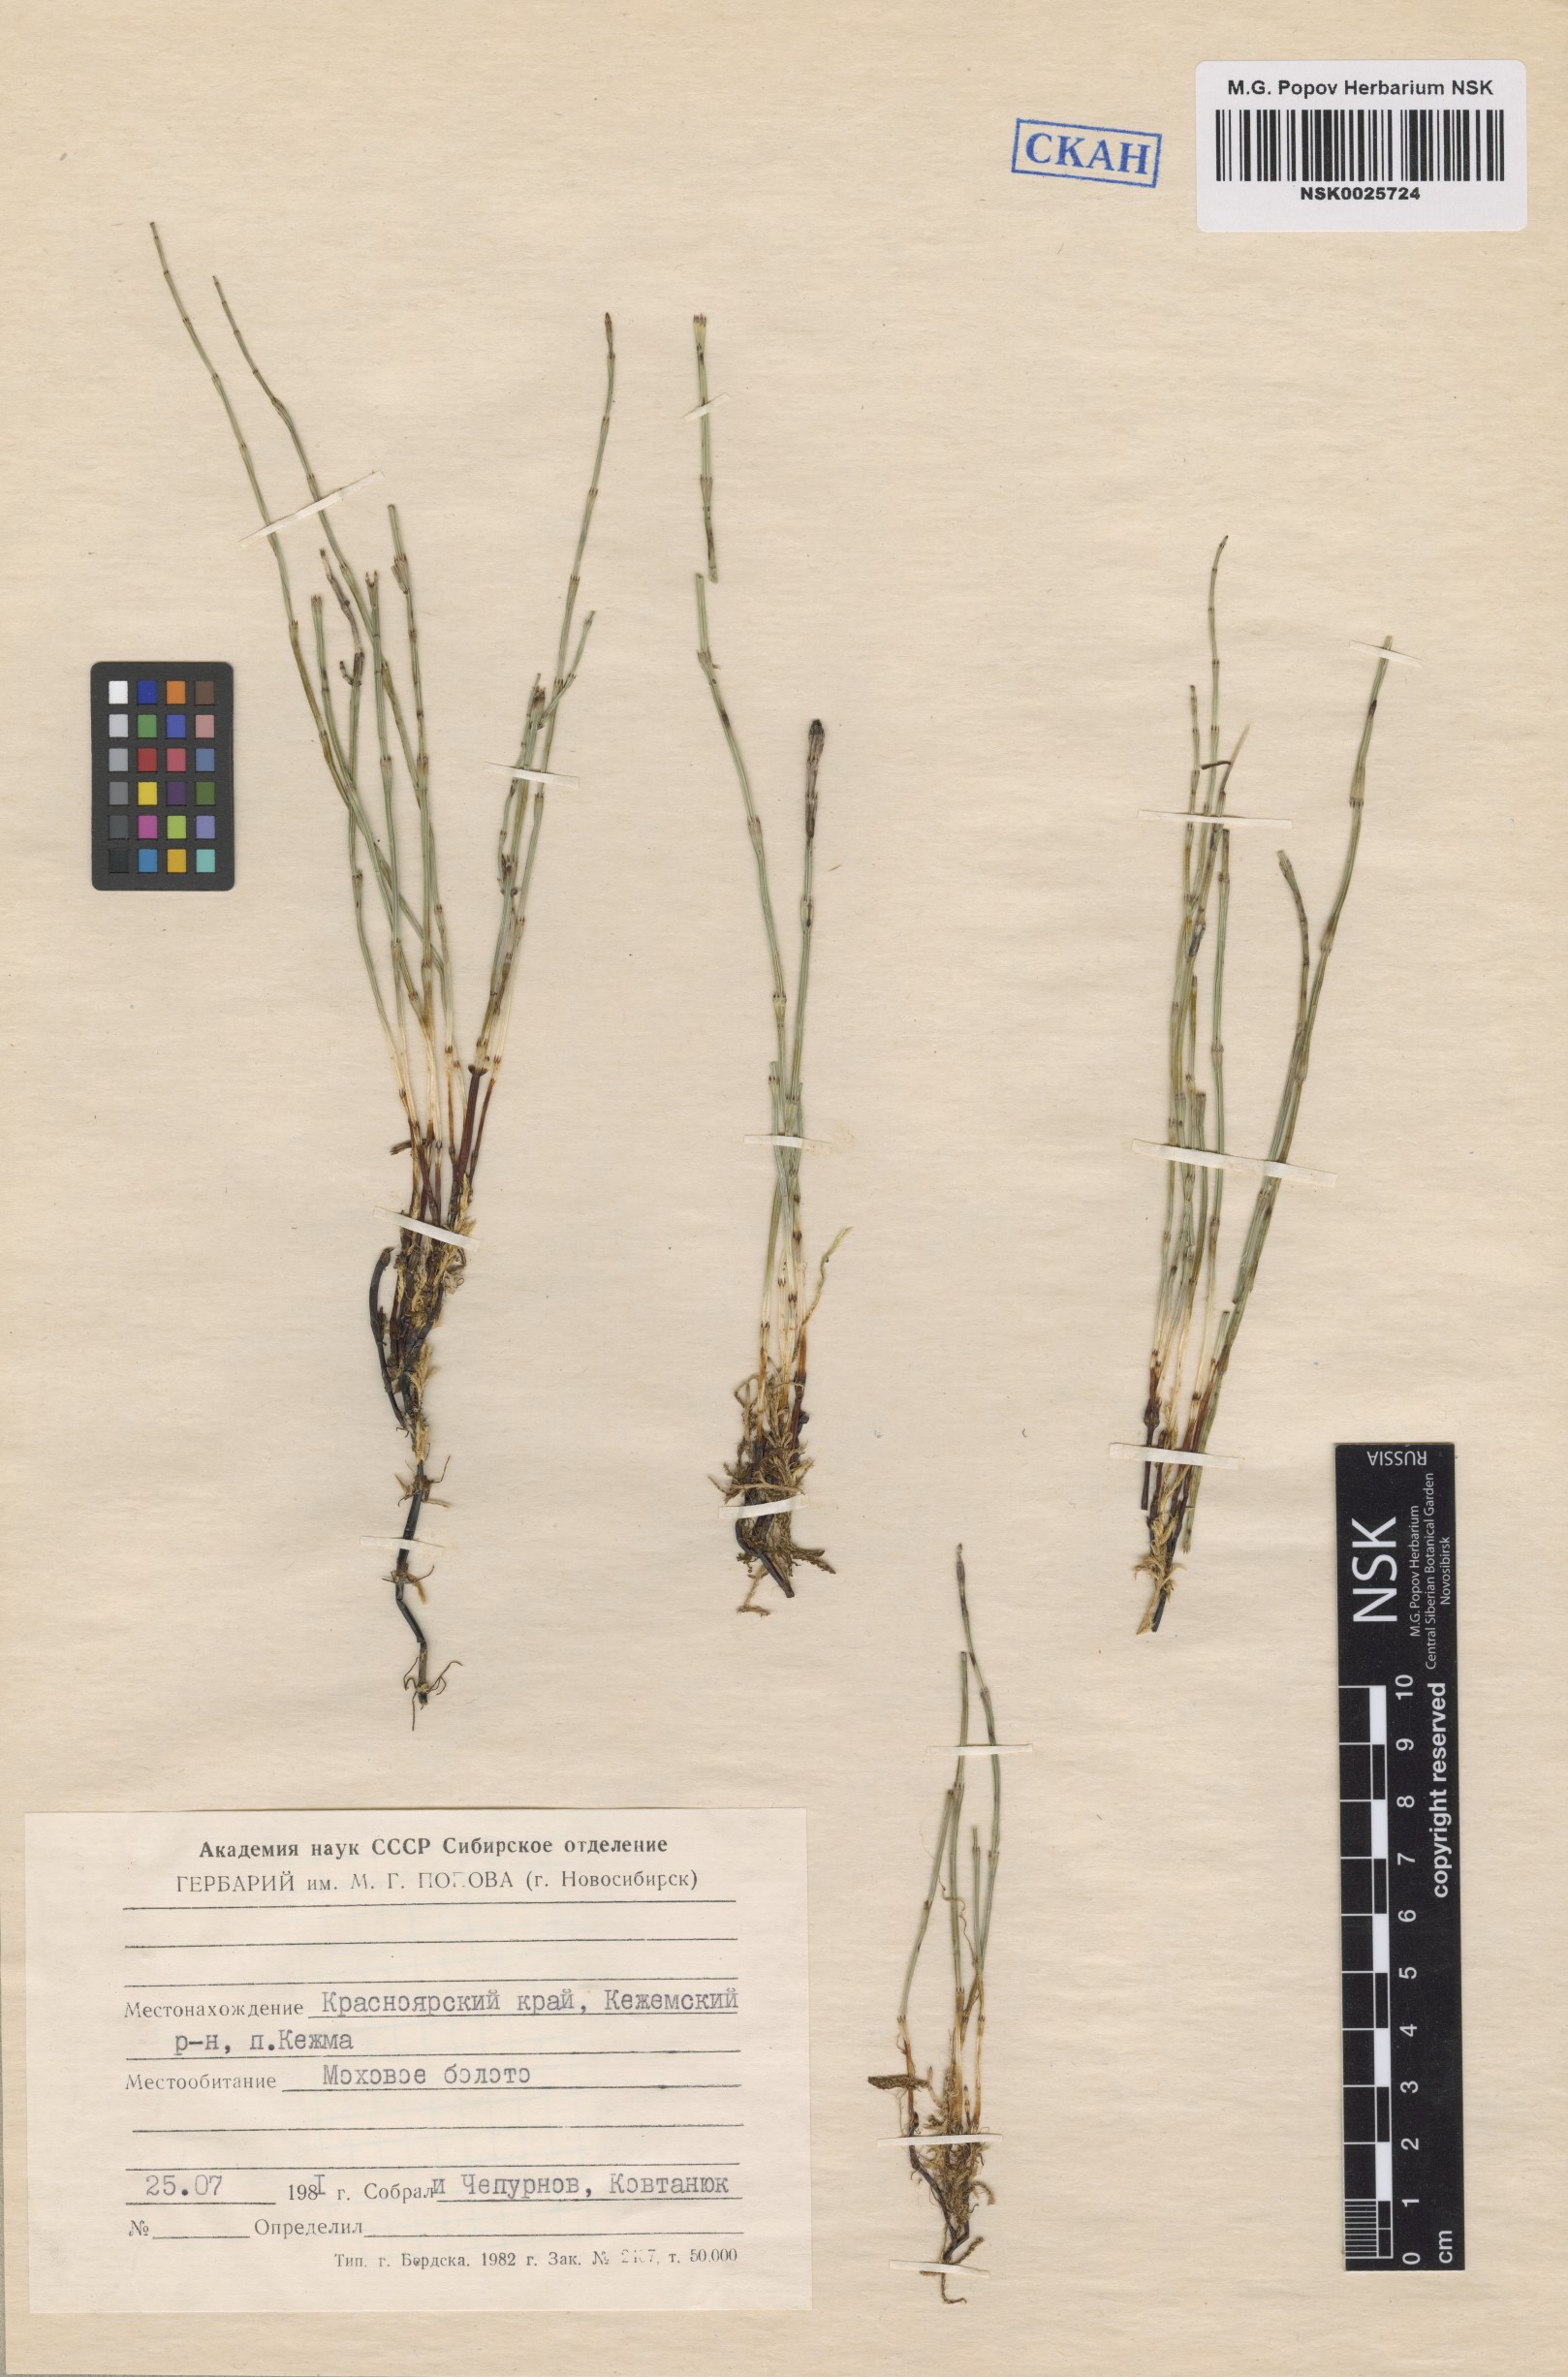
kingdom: Plantae
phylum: Tracheophyta
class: Polypodiopsida
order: Equisetales
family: Equisetaceae
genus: Equisetum
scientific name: Equisetum palustre
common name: Marsh horsetail
